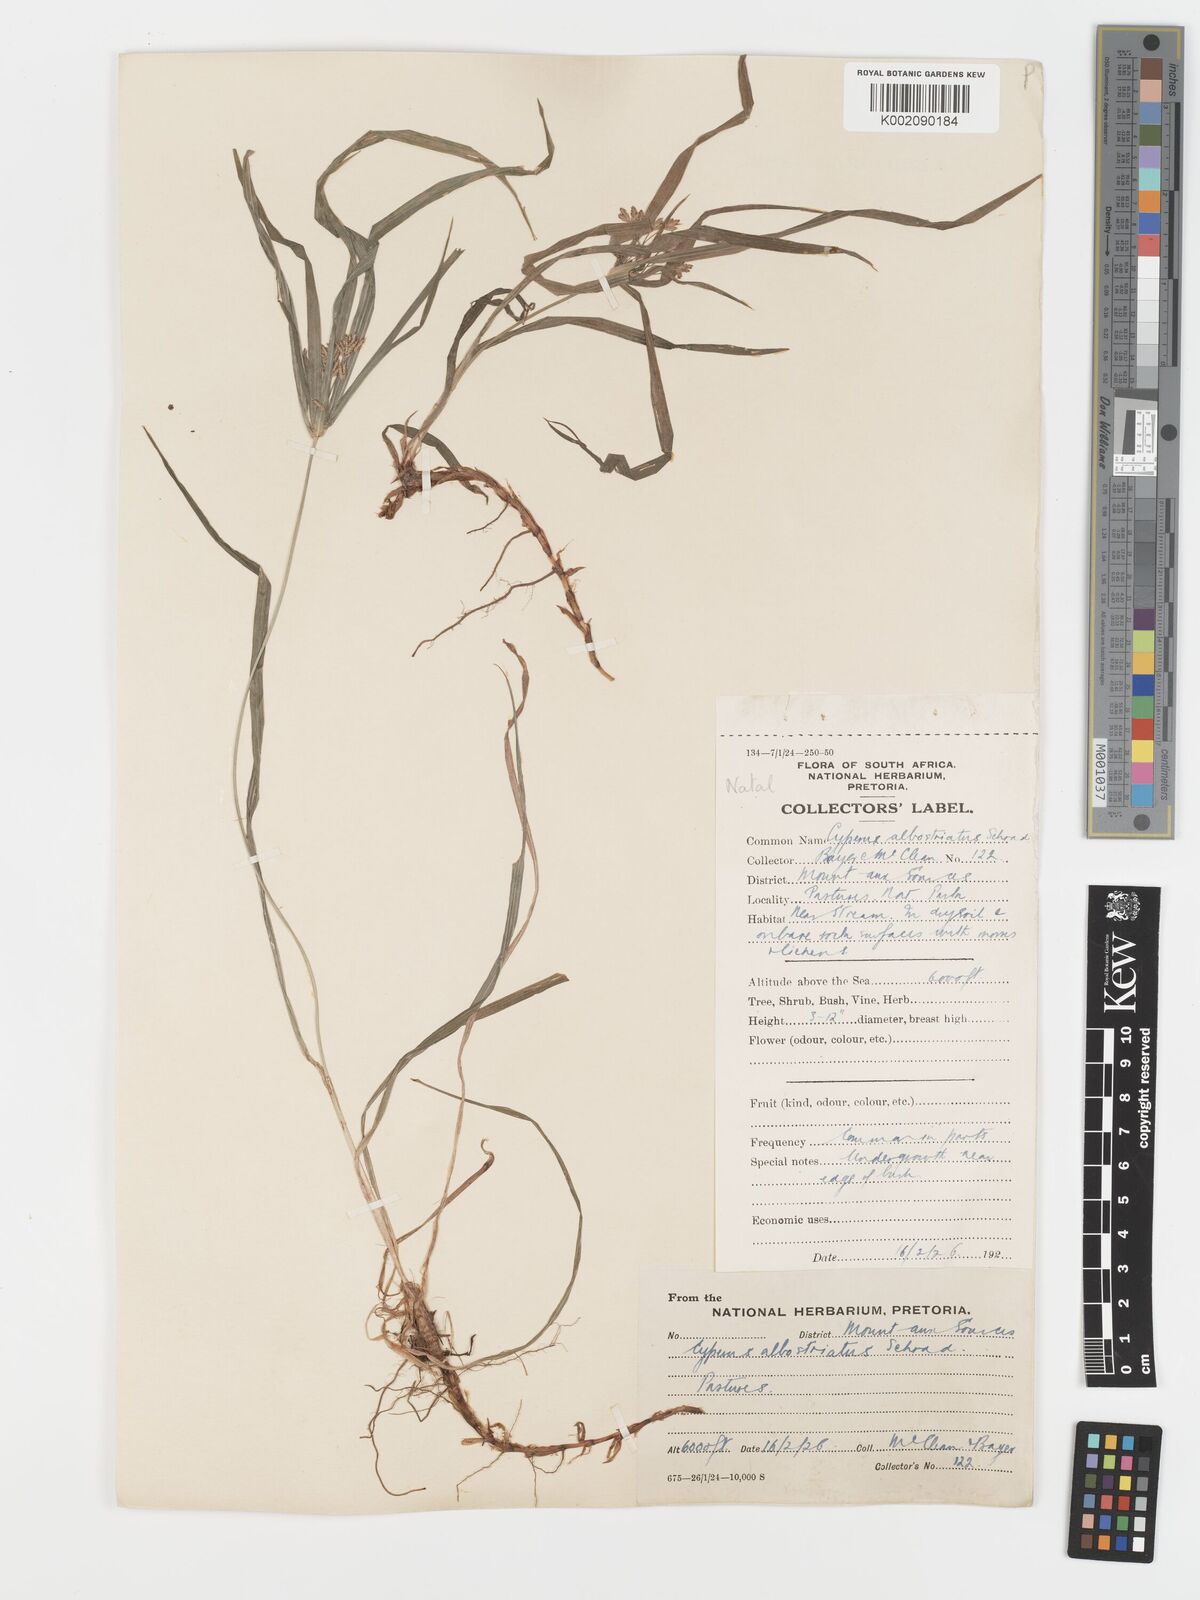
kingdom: Plantae
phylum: Tracheophyta
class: Liliopsida
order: Poales
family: Cyperaceae
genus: Cyperus
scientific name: Cyperus albostriatus
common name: Dwarf umbrella-grass
